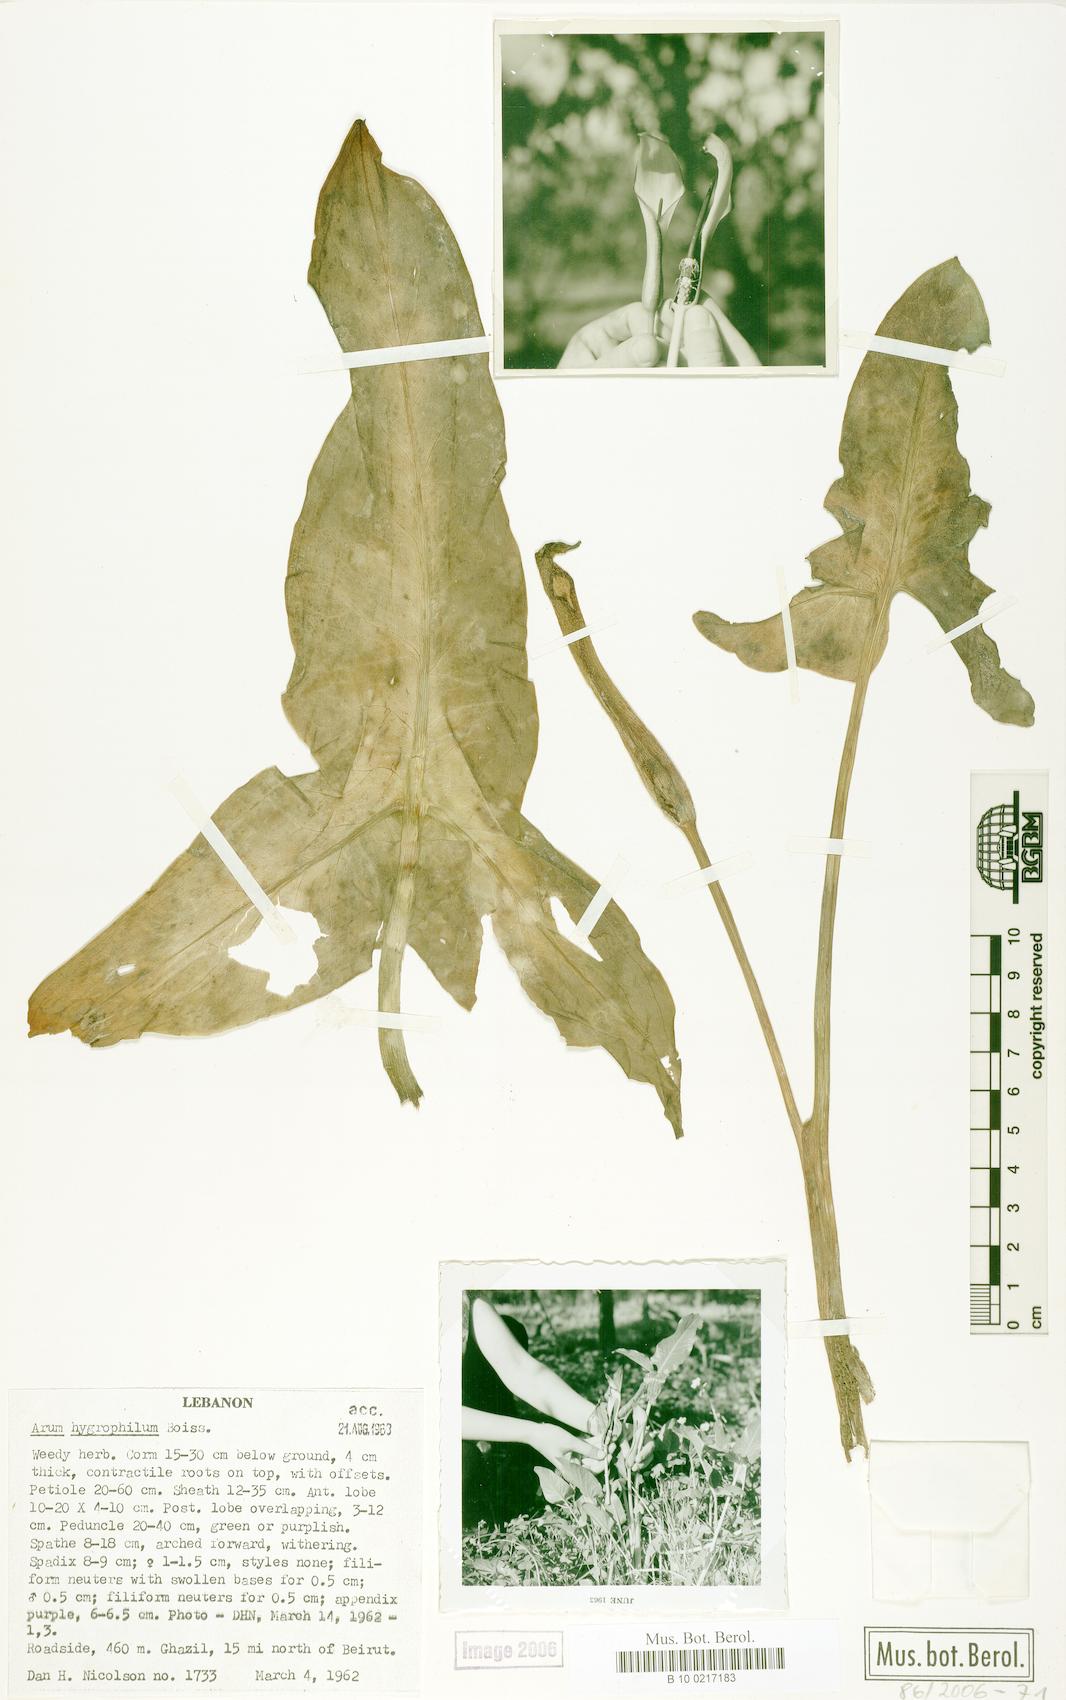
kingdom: Plantae
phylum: Tracheophyta
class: Liliopsida
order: Alismatales
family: Araceae
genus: Arum
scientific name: Arum hygrophilum
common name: Water arum
